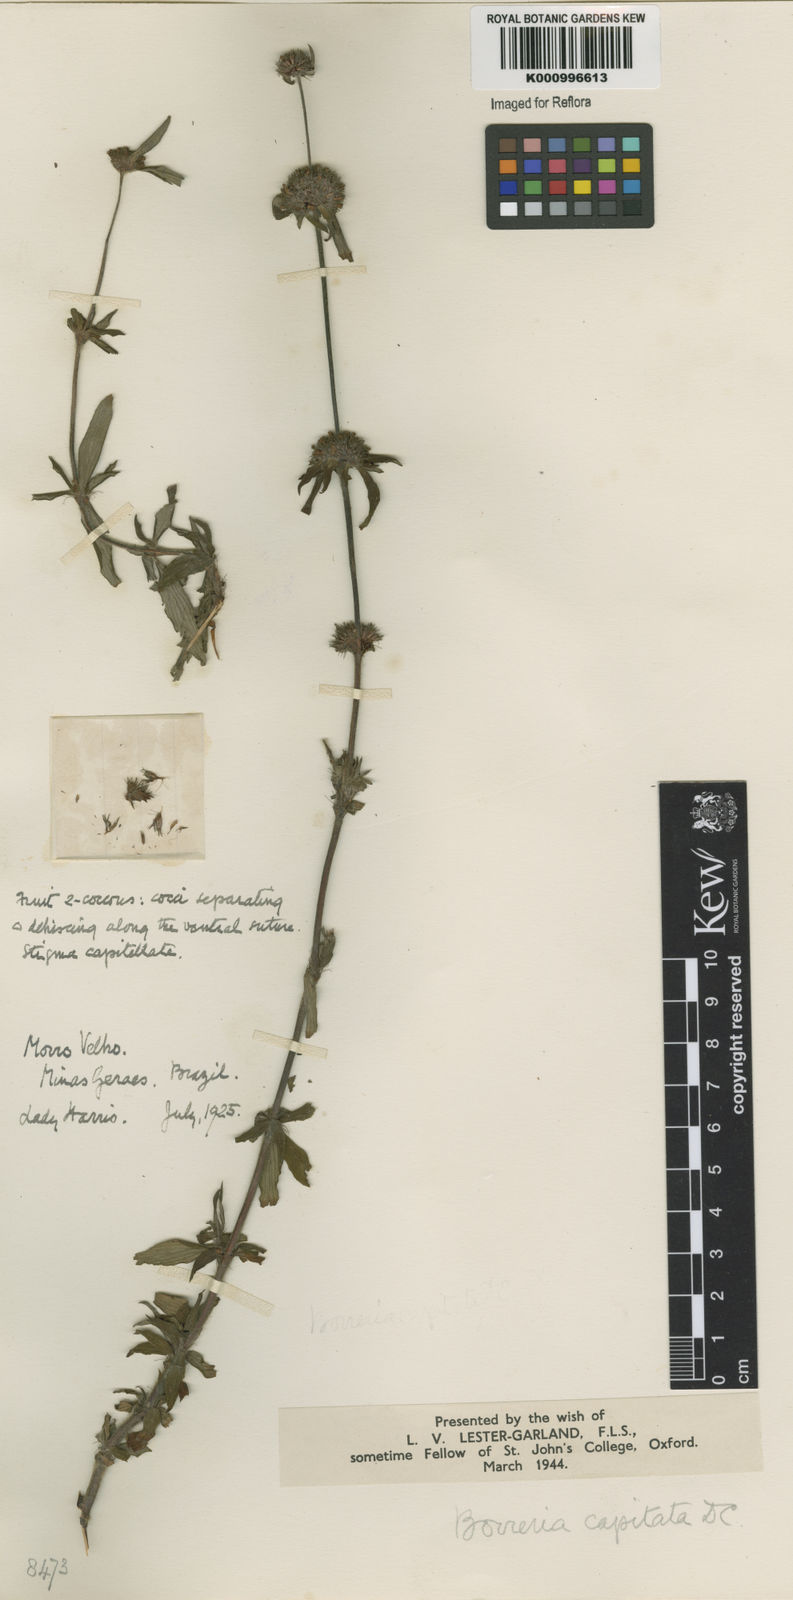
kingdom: Plantae
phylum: Tracheophyta
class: Magnoliopsida
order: Gentianales
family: Rubiaceae
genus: Spermacoce
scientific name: Spermacoce
